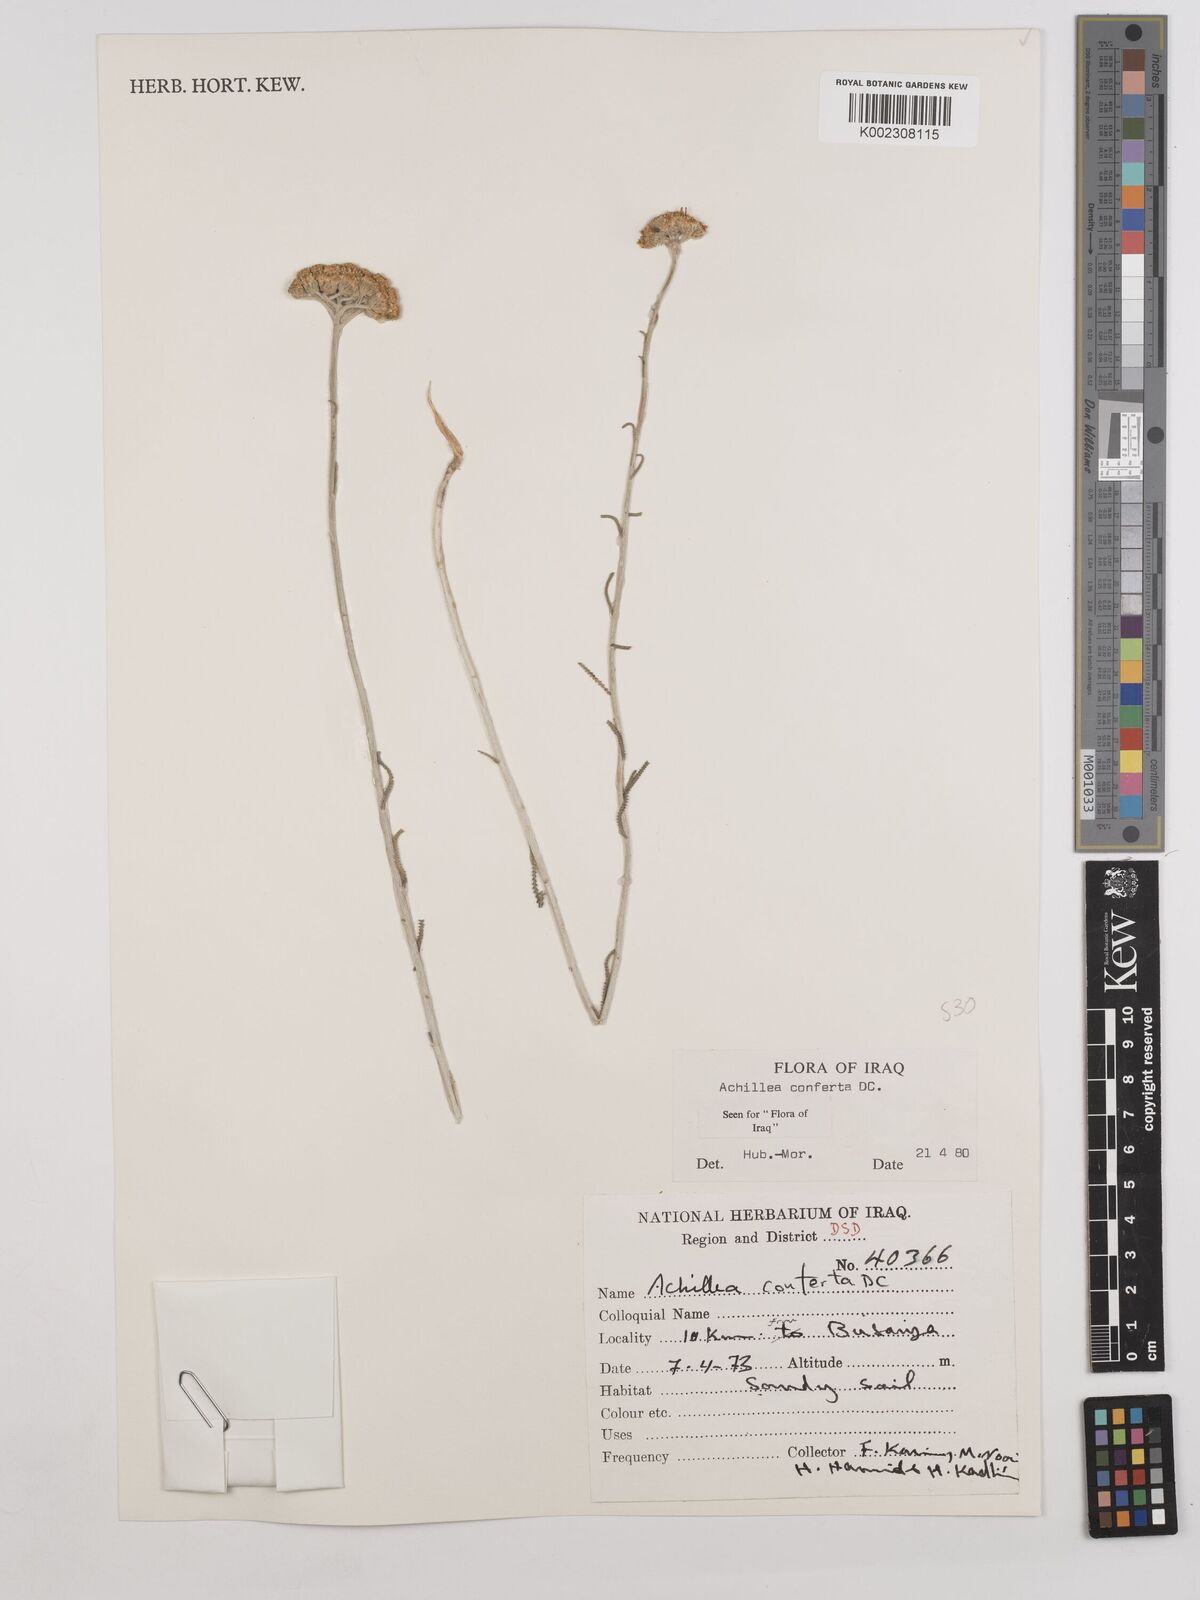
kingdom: Plantae
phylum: Tracheophyta
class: Magnoliopsida
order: Asterales
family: Asteraceae
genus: Achillea
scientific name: Achillea conferta
